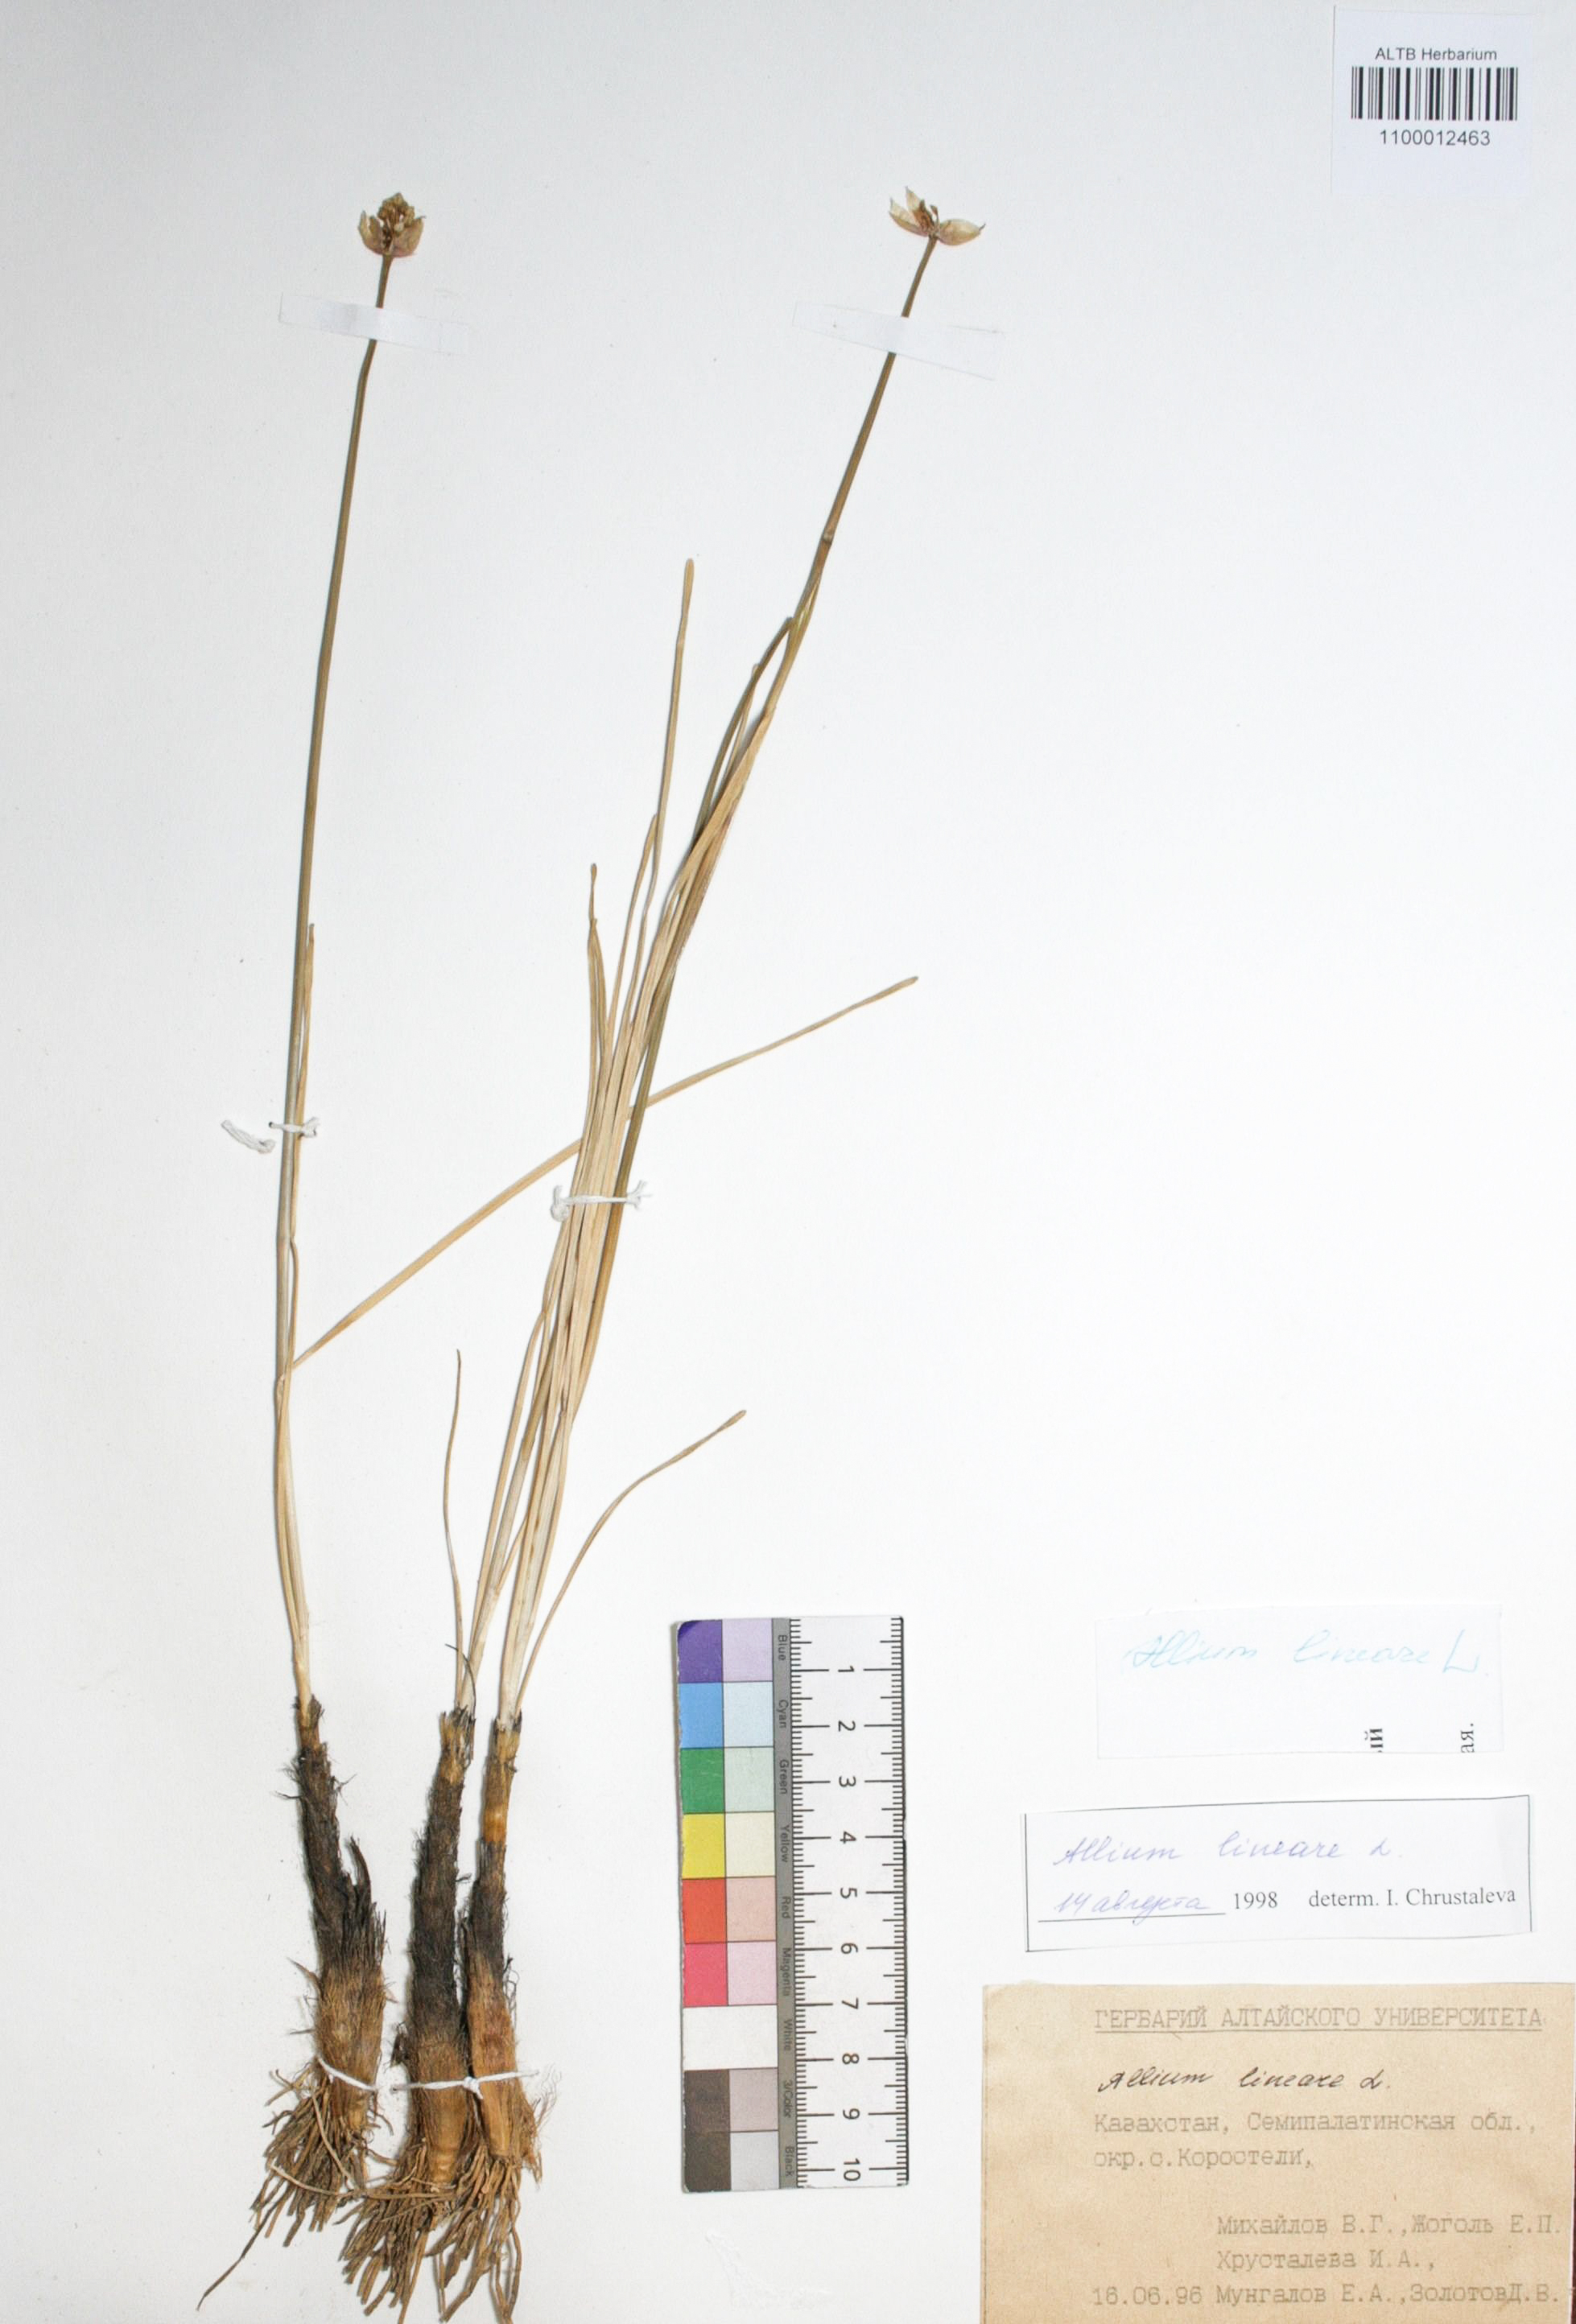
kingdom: Plantae
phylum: Tracheophyta
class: Liliopsida
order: Asparagales
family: Amaryllidaceae
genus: Allium
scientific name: Allium lineare
